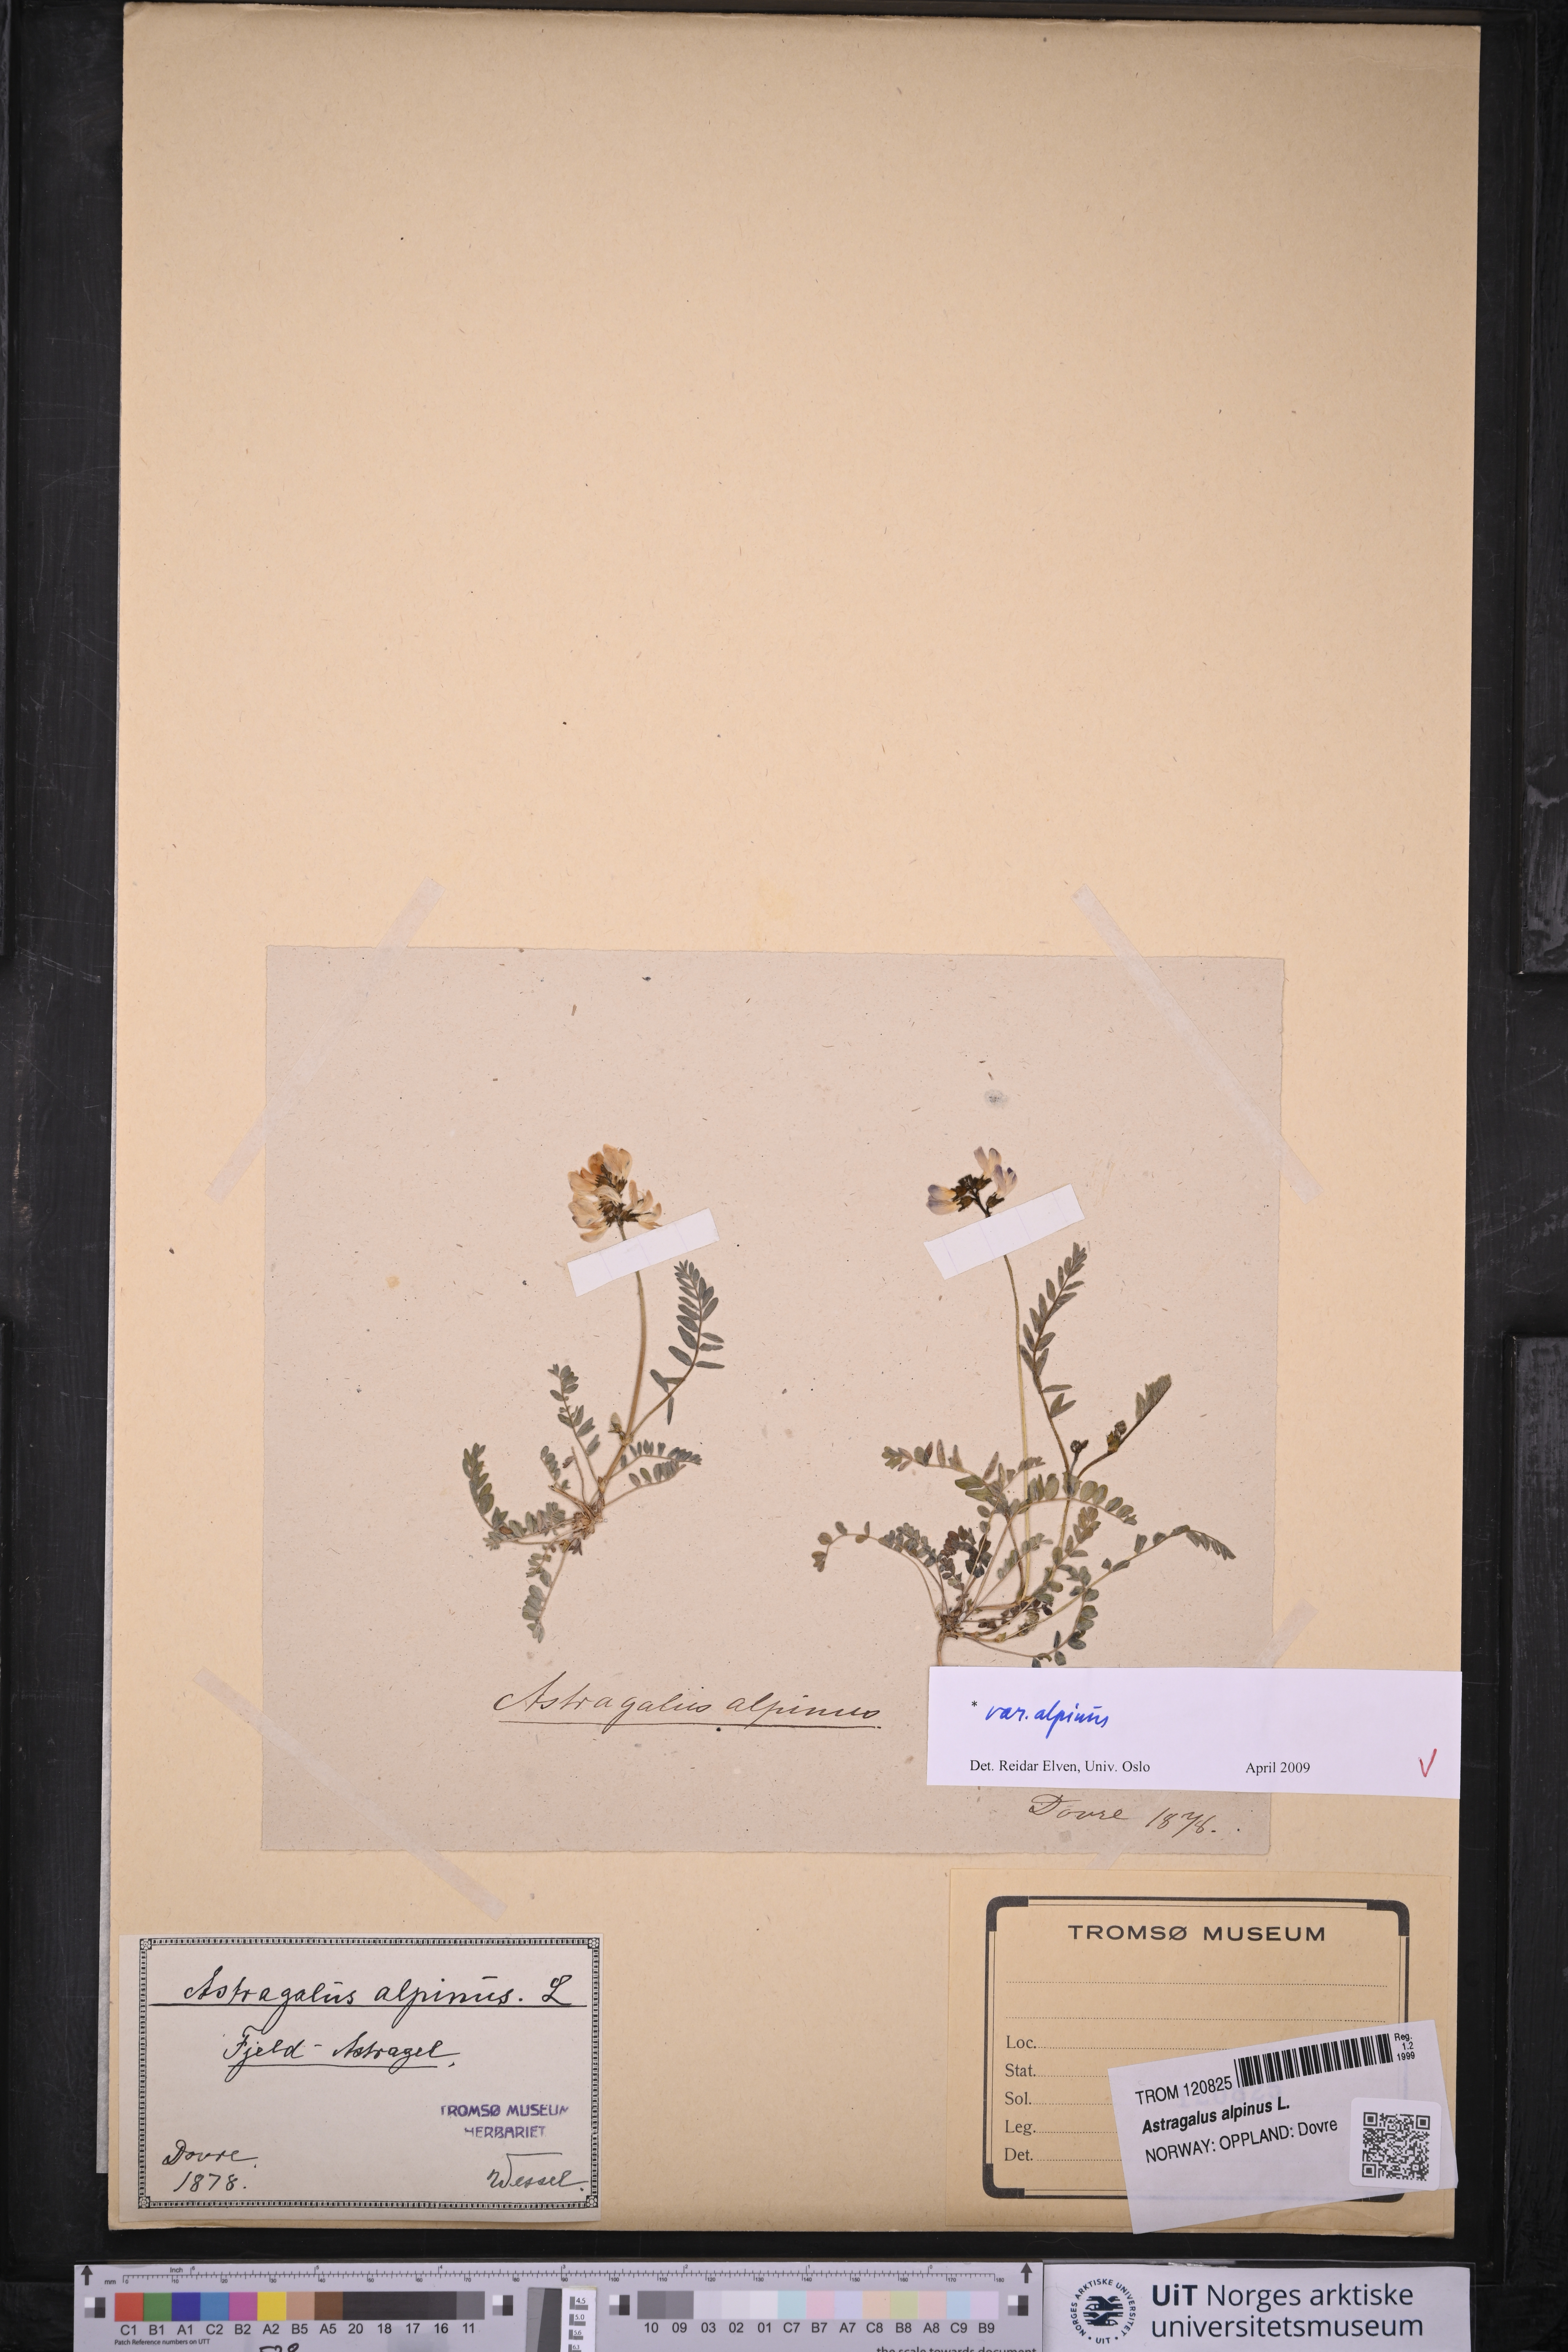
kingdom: Plantae
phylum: Tracheophyta
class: Magnoliopsida
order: Fabales
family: Fabaceae
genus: Astragalus
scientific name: Astragalus alpinus
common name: Alpine milk-vetch
